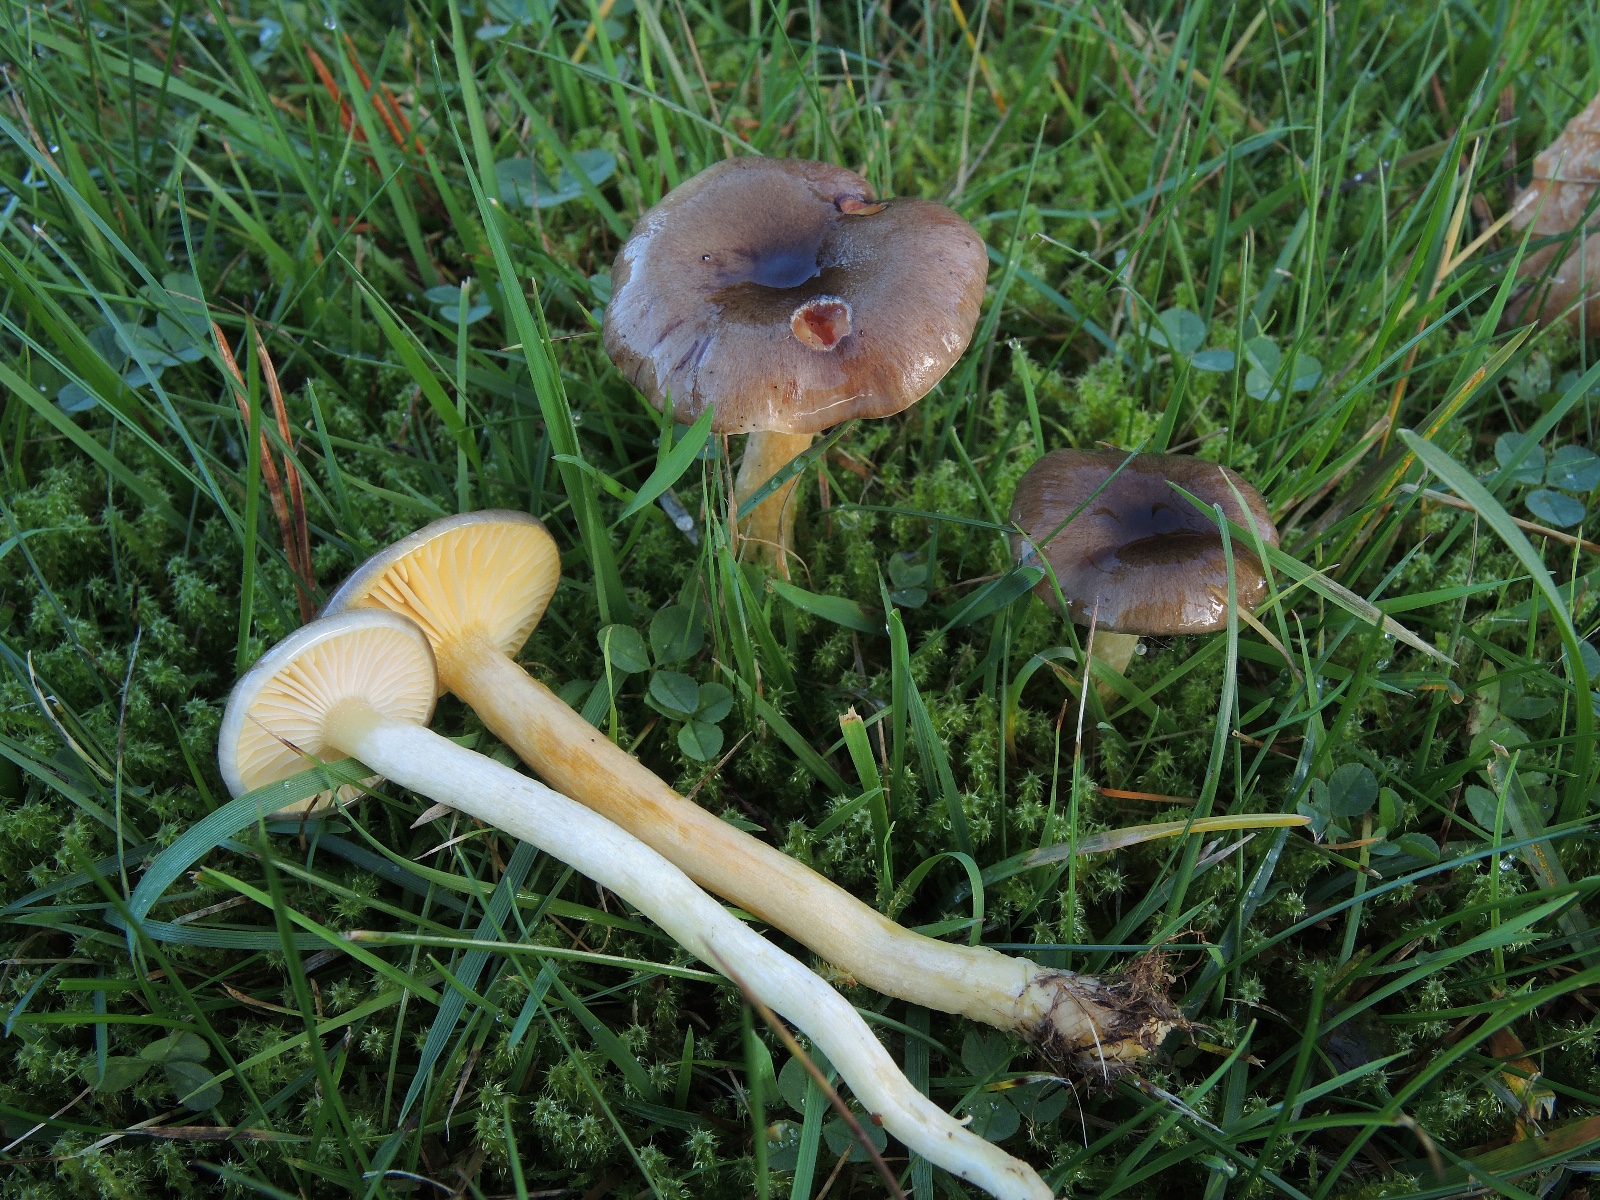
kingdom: Fungi
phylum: Basidiomycota
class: Agaricomycetes
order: Agaricales
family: Hygrophoraceae
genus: Hygrophorus
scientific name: Hygrophorus hypothejus
